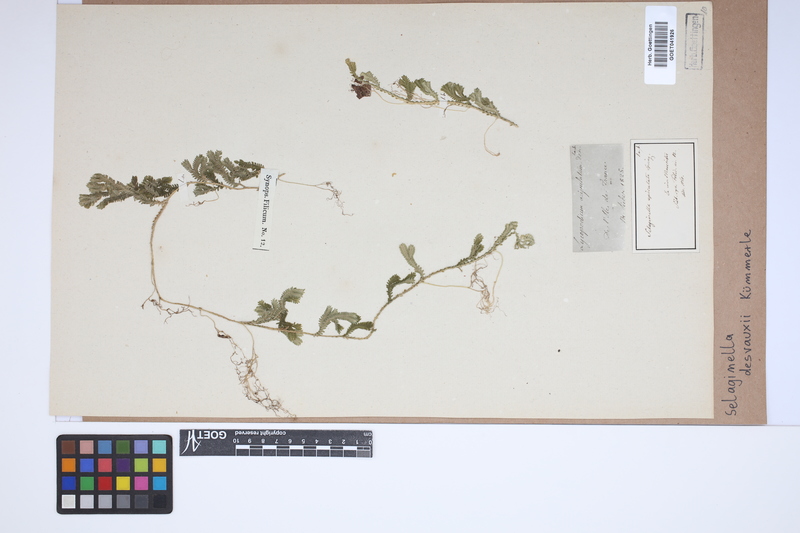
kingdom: Plantae
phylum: Tracheophyta
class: Lycopodiopsida
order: Selaginellales
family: Selaginellaceae
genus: Selaginella
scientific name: Selaginella concinna
